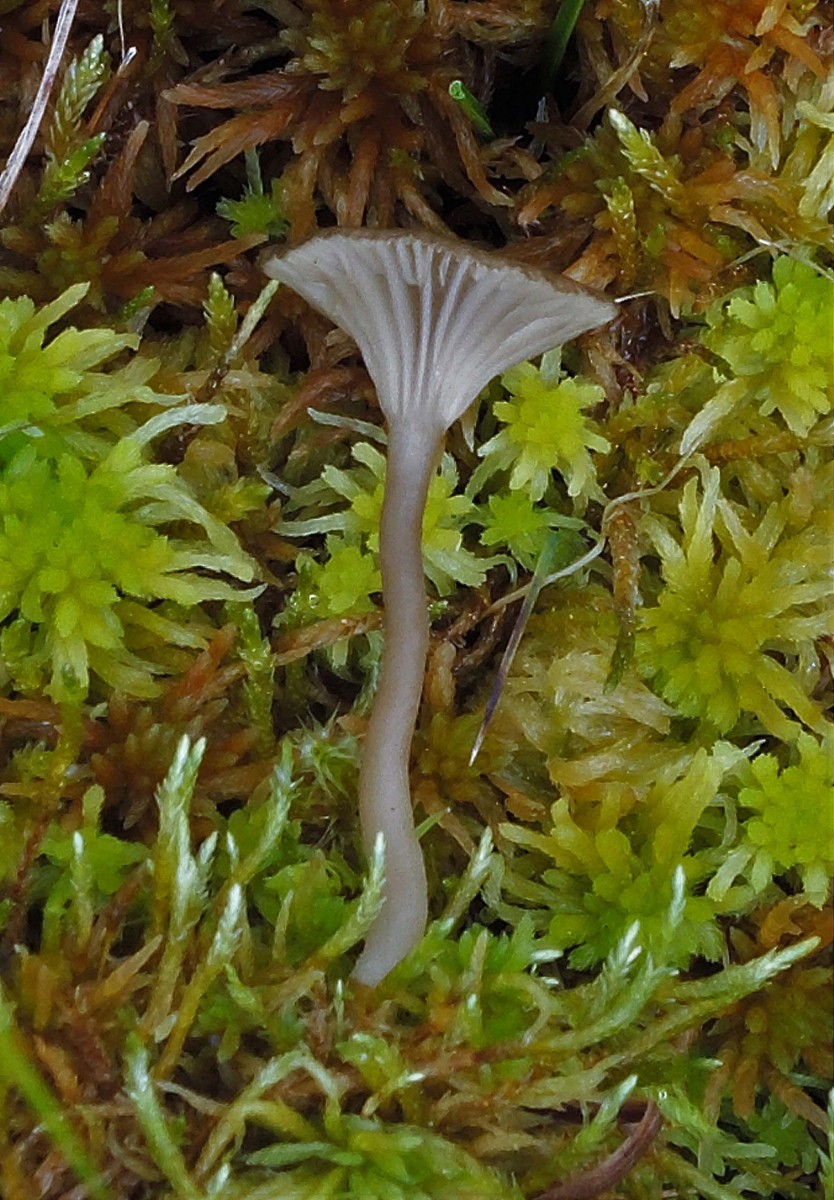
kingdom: Fungi
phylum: Basidiomycota
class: Agaricomycetes
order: Agaricales
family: Hygrophoraceae
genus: Arrhenia
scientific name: Arrhenia gerardiana
